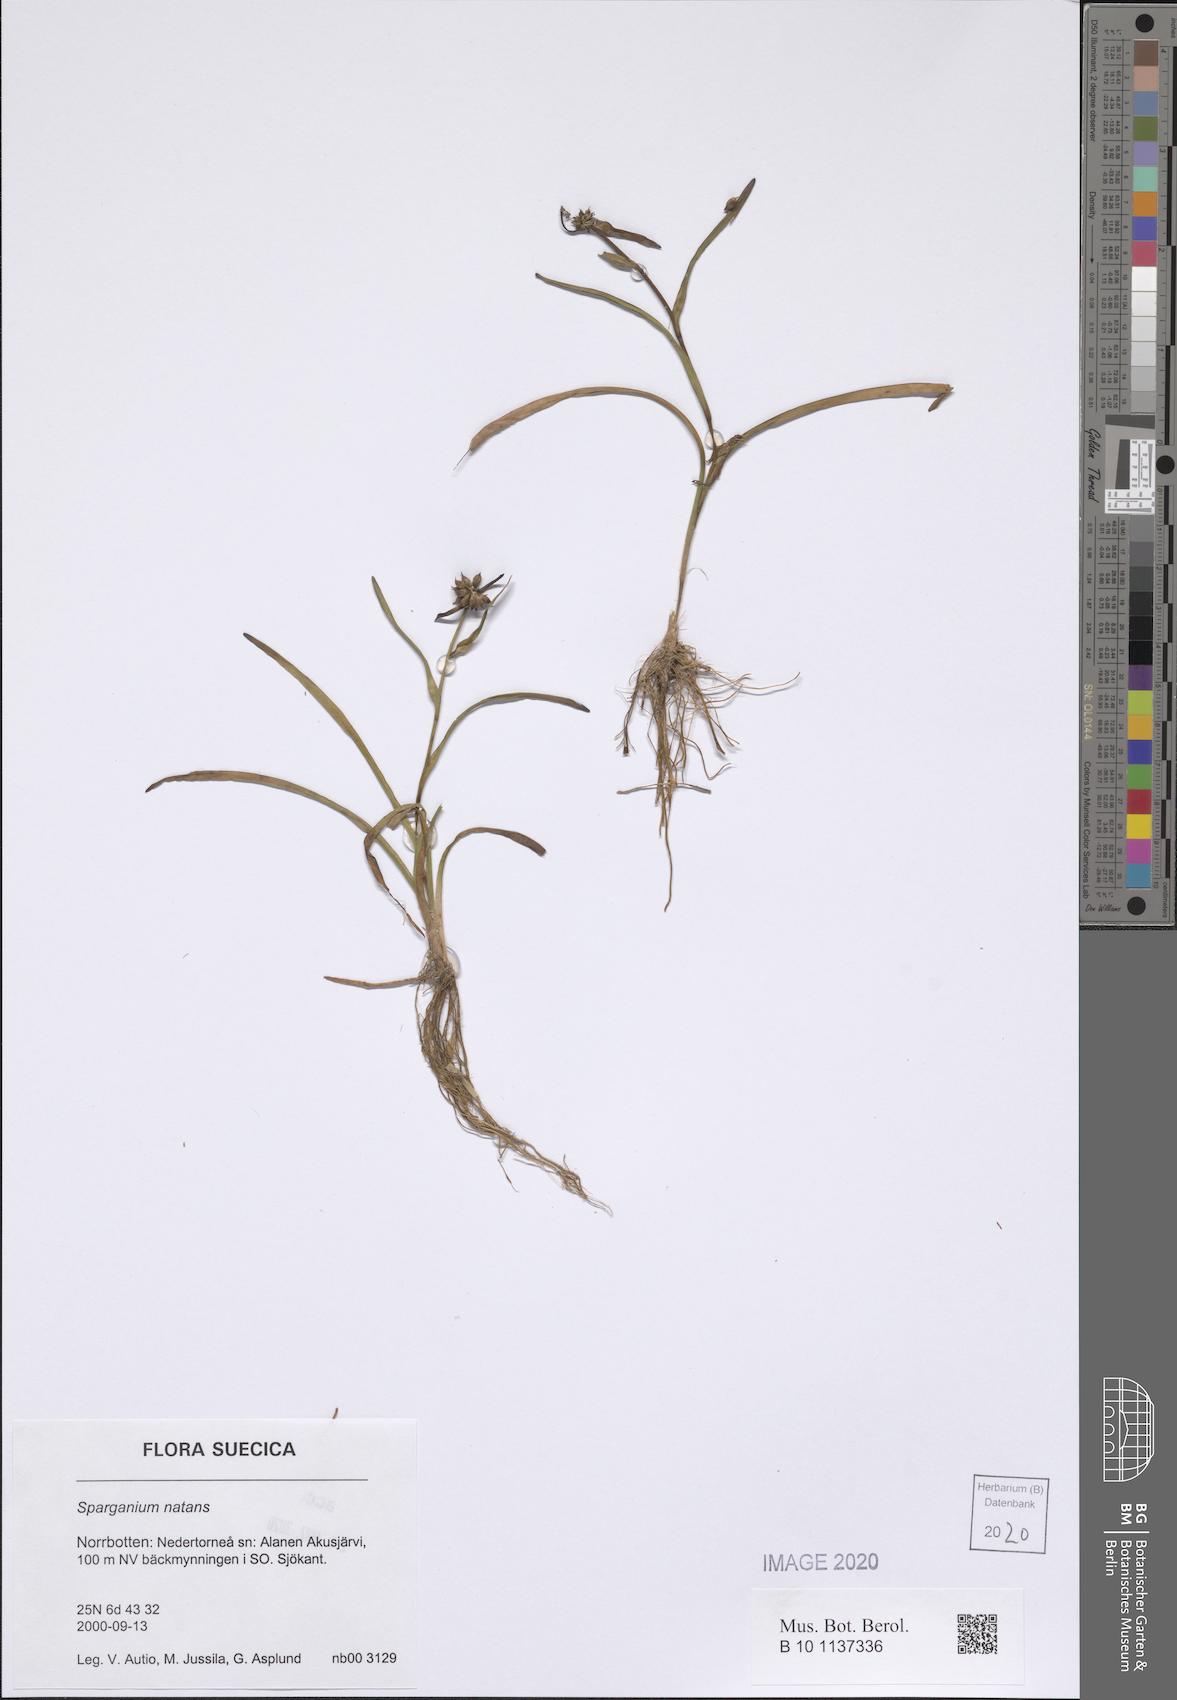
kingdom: Plantae
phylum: Tracheophyta
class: Liliopsida
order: Poales
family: Typhaceae
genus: Sparganium
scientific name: Sparganium natans
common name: Least bur-reed
